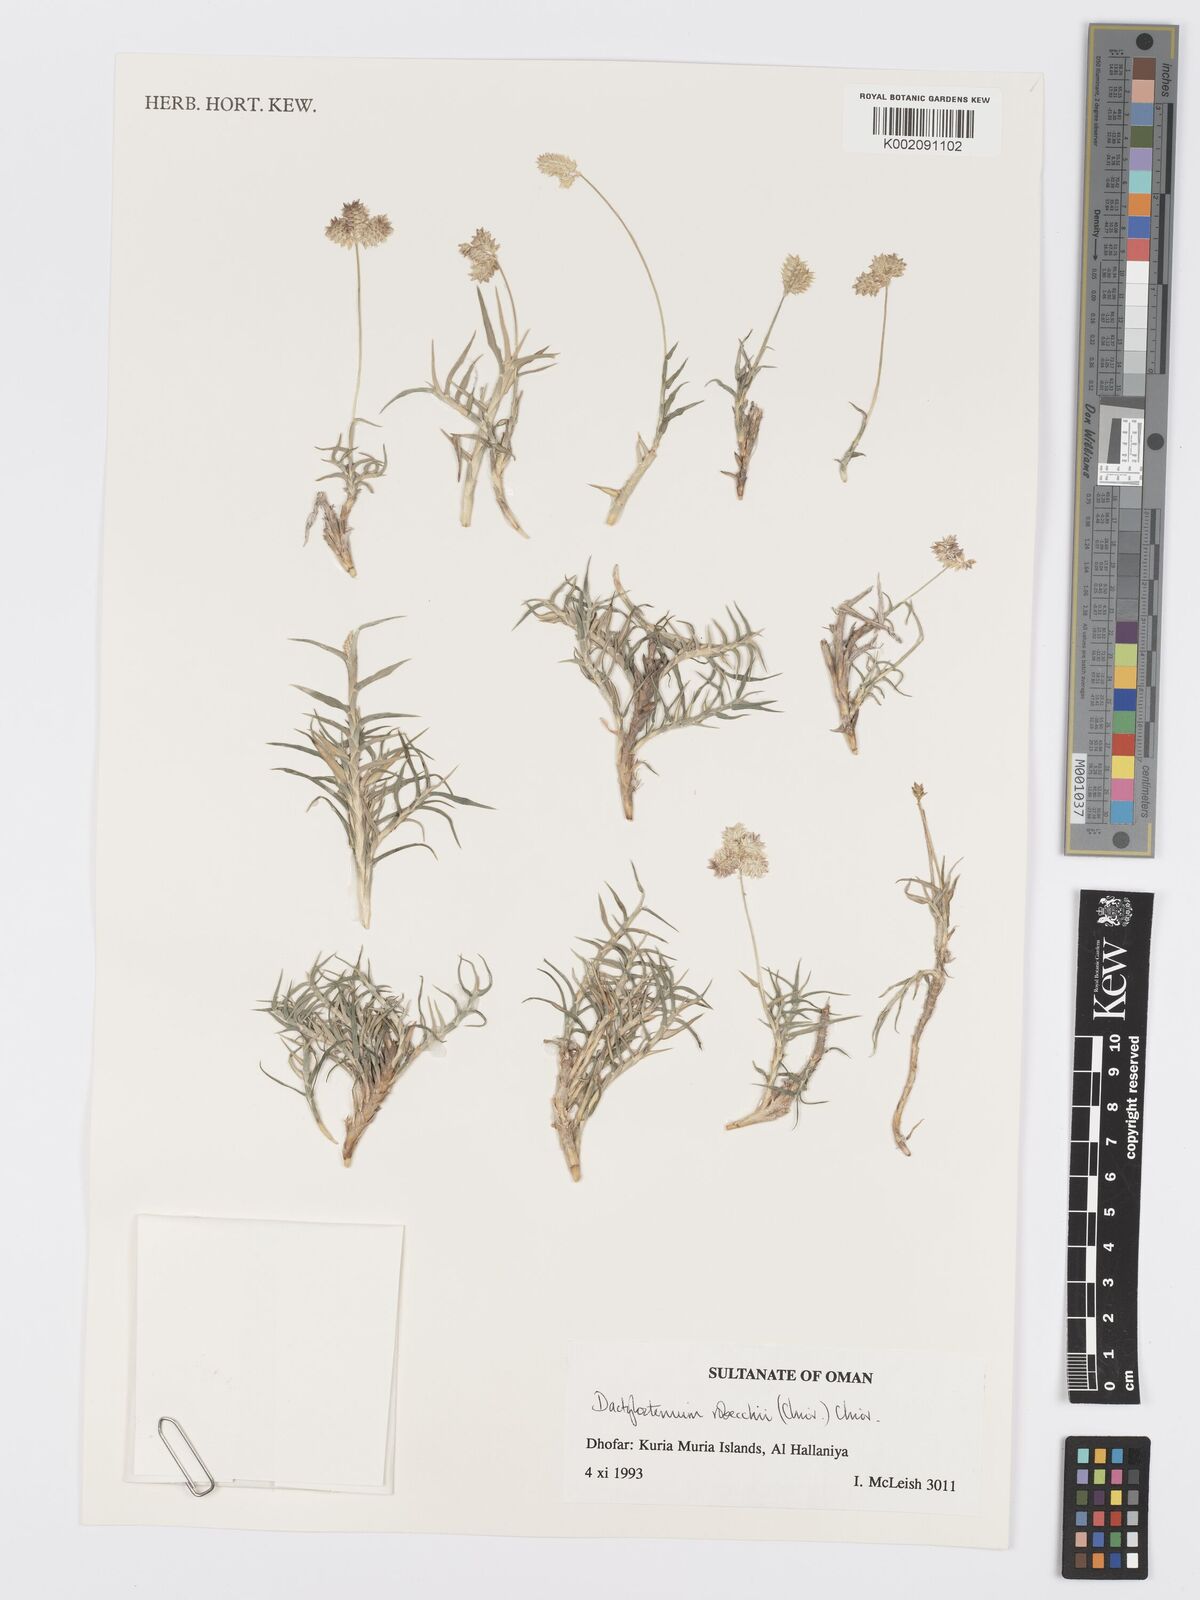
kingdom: Plantae
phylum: Tracheophyta
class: Liliopsida
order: Poales
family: Poaceae
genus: Dactyloctenium
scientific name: Dactyloctenium robecchii
